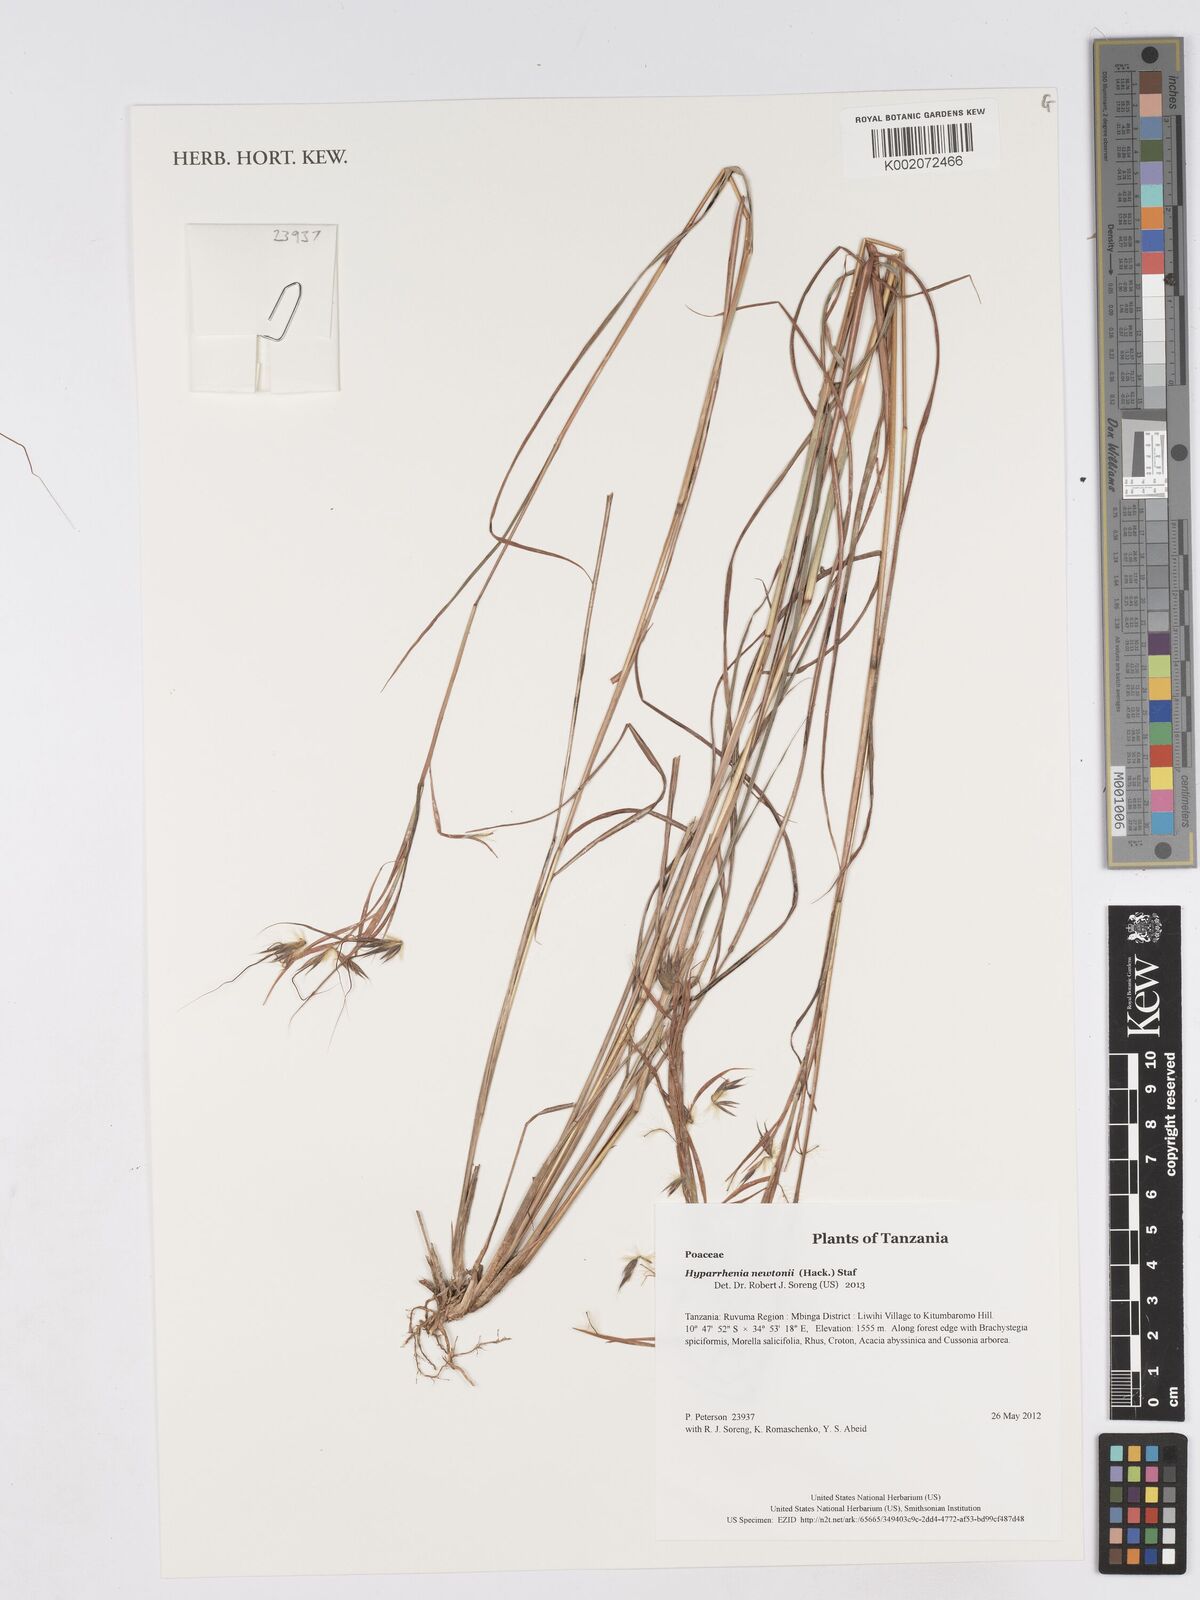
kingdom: Plantae
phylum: Tracheophyta
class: Liliopsida
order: Poales
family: Poaceae
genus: Hyparrhenia
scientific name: Hyparrhenia newtonii
